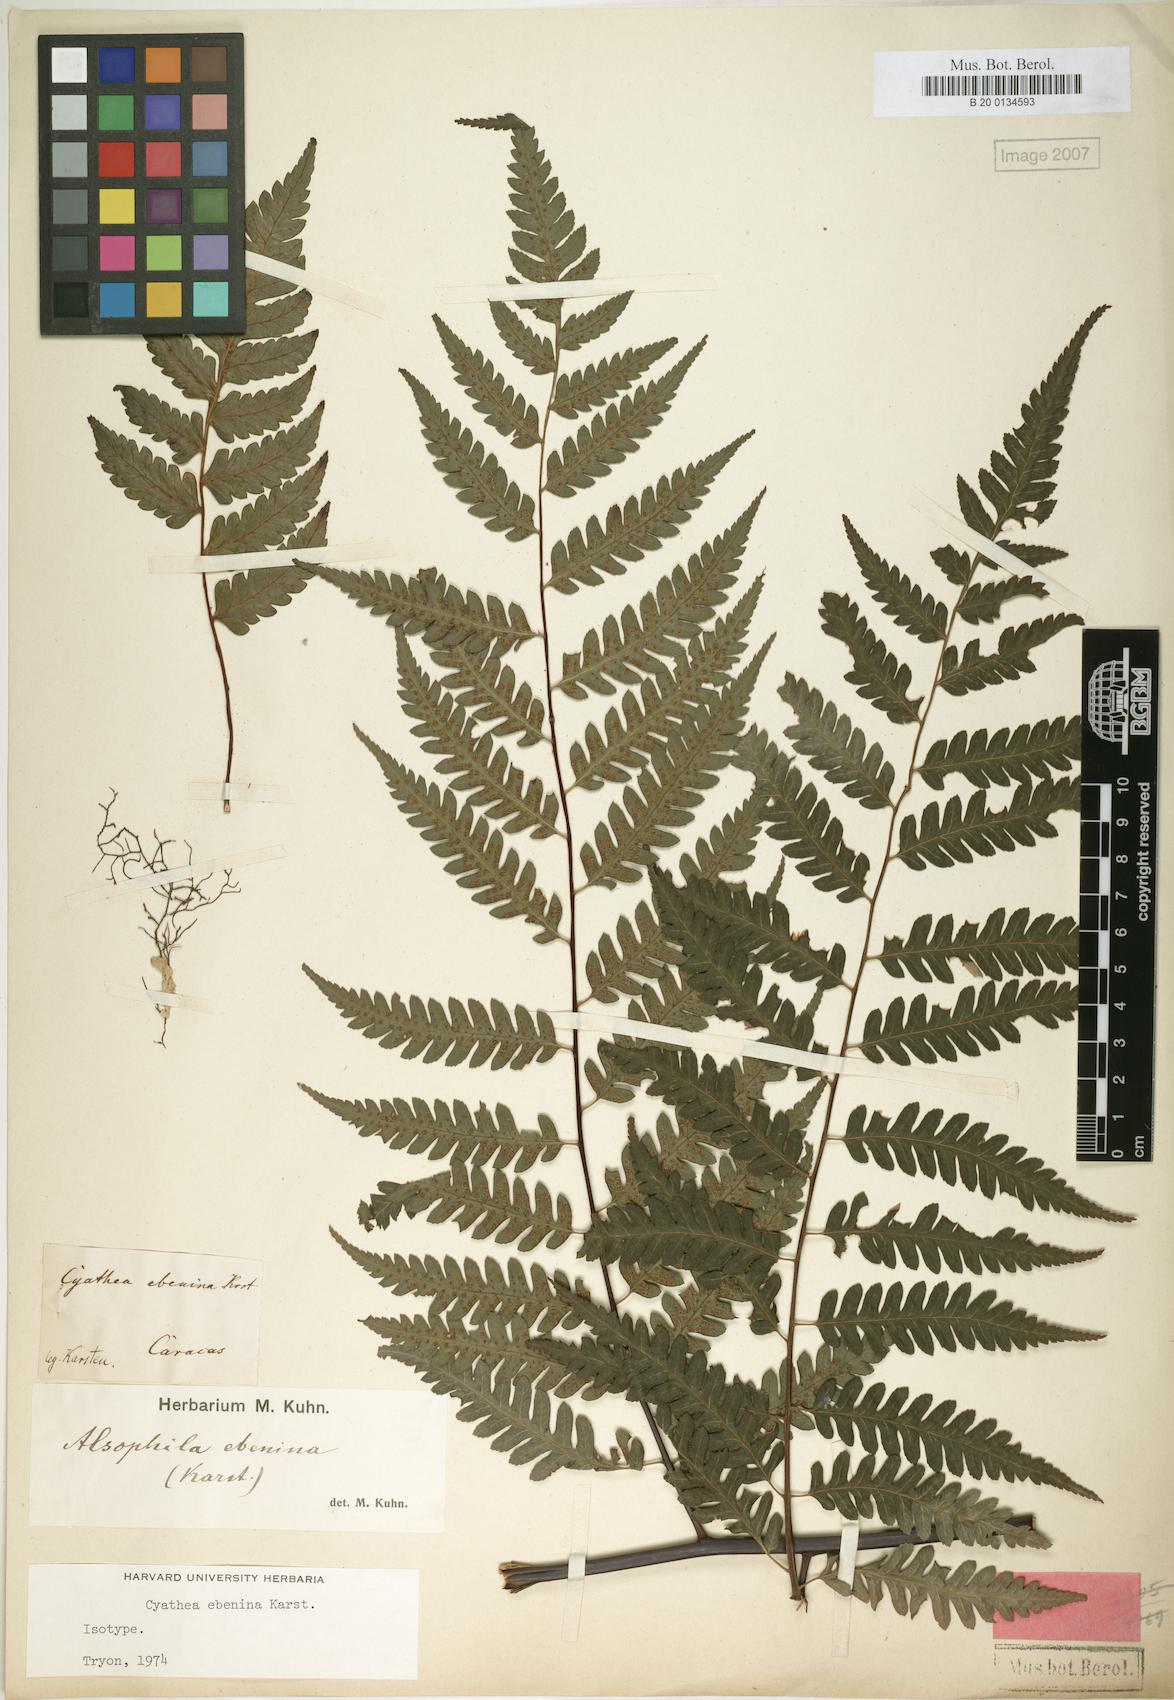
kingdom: Plantae
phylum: Tracheophyta
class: Polypodiopsida
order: Cyatheales
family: Cyatheaceae
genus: Cyathea
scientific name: Cyathea ebenina
